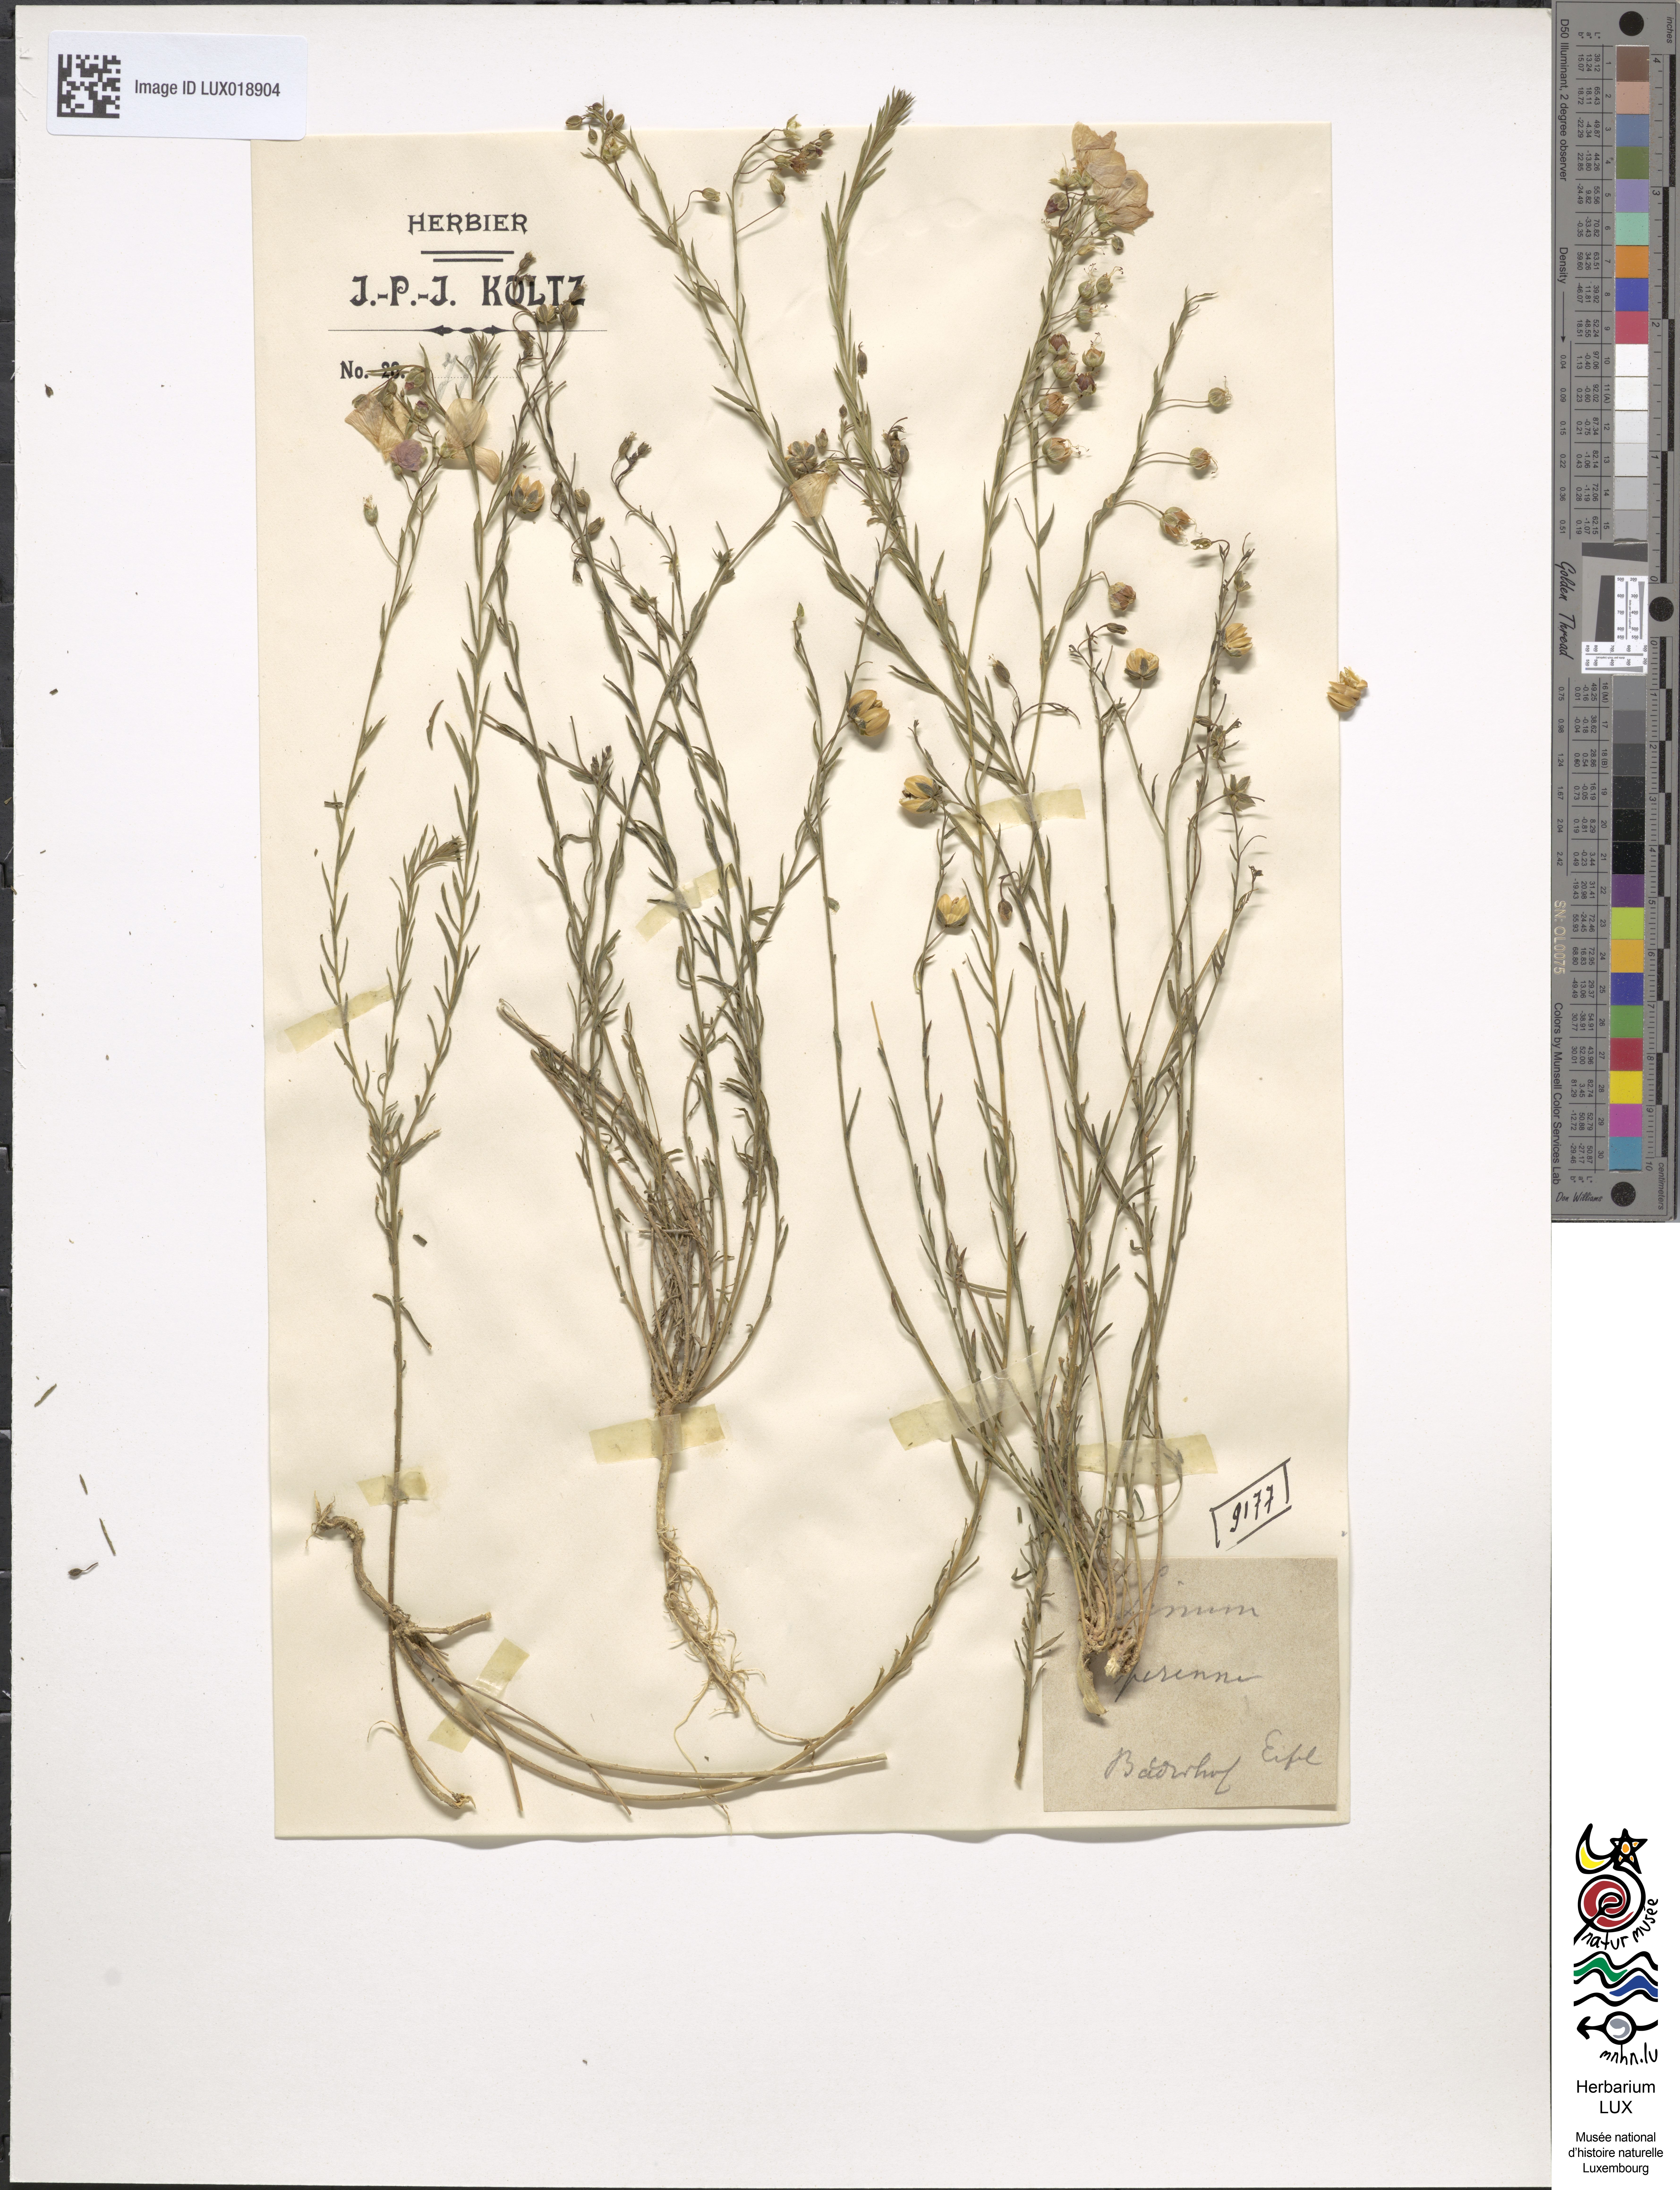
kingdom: Plantae
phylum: Tracheophyta
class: Magnoliopsida
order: Malpighiales
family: Linaceae
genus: Linum
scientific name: Linum perenne
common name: Blue flax
